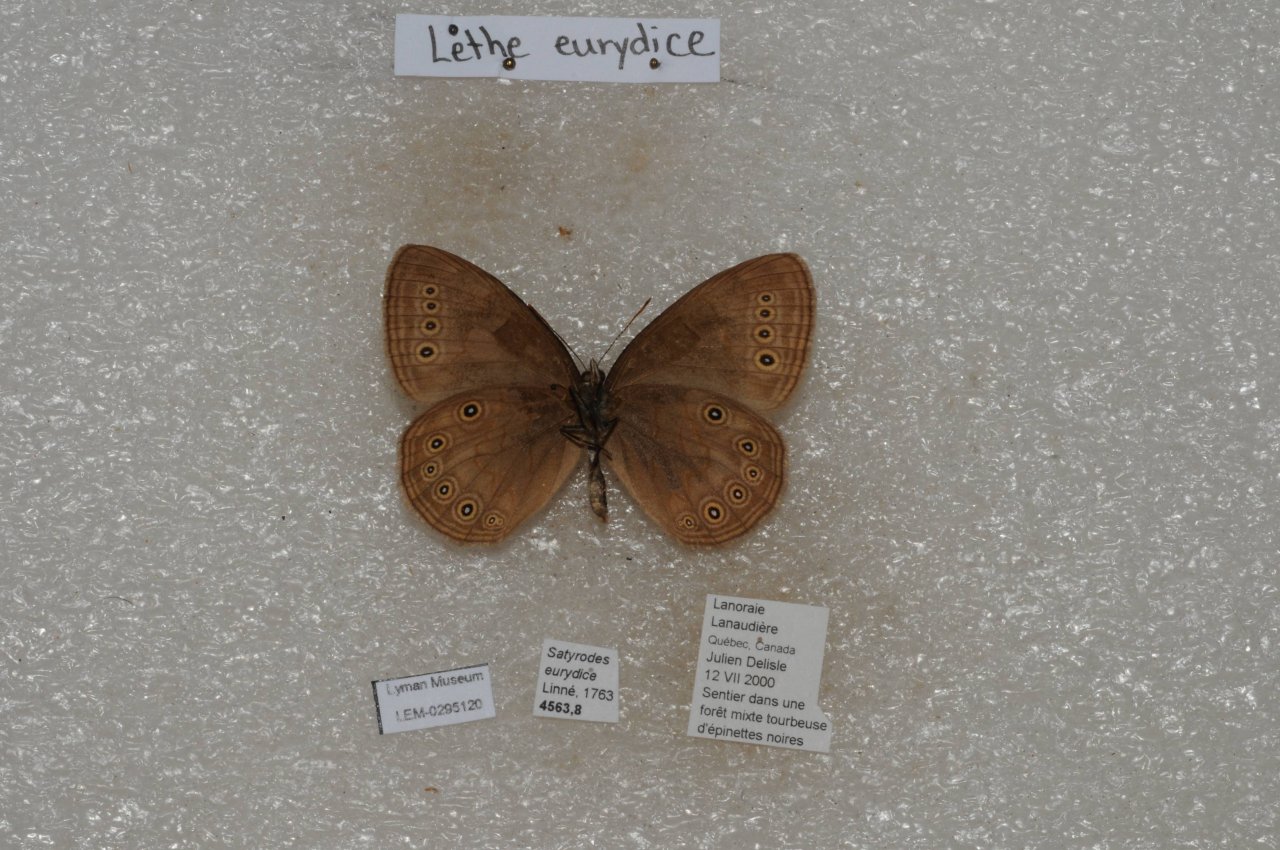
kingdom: Animalia
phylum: Arthropoda
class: Insecta
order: Lepidoptera
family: Nymphalidae
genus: Lethe
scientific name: Lethe eurydice
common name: Eyed Brown
